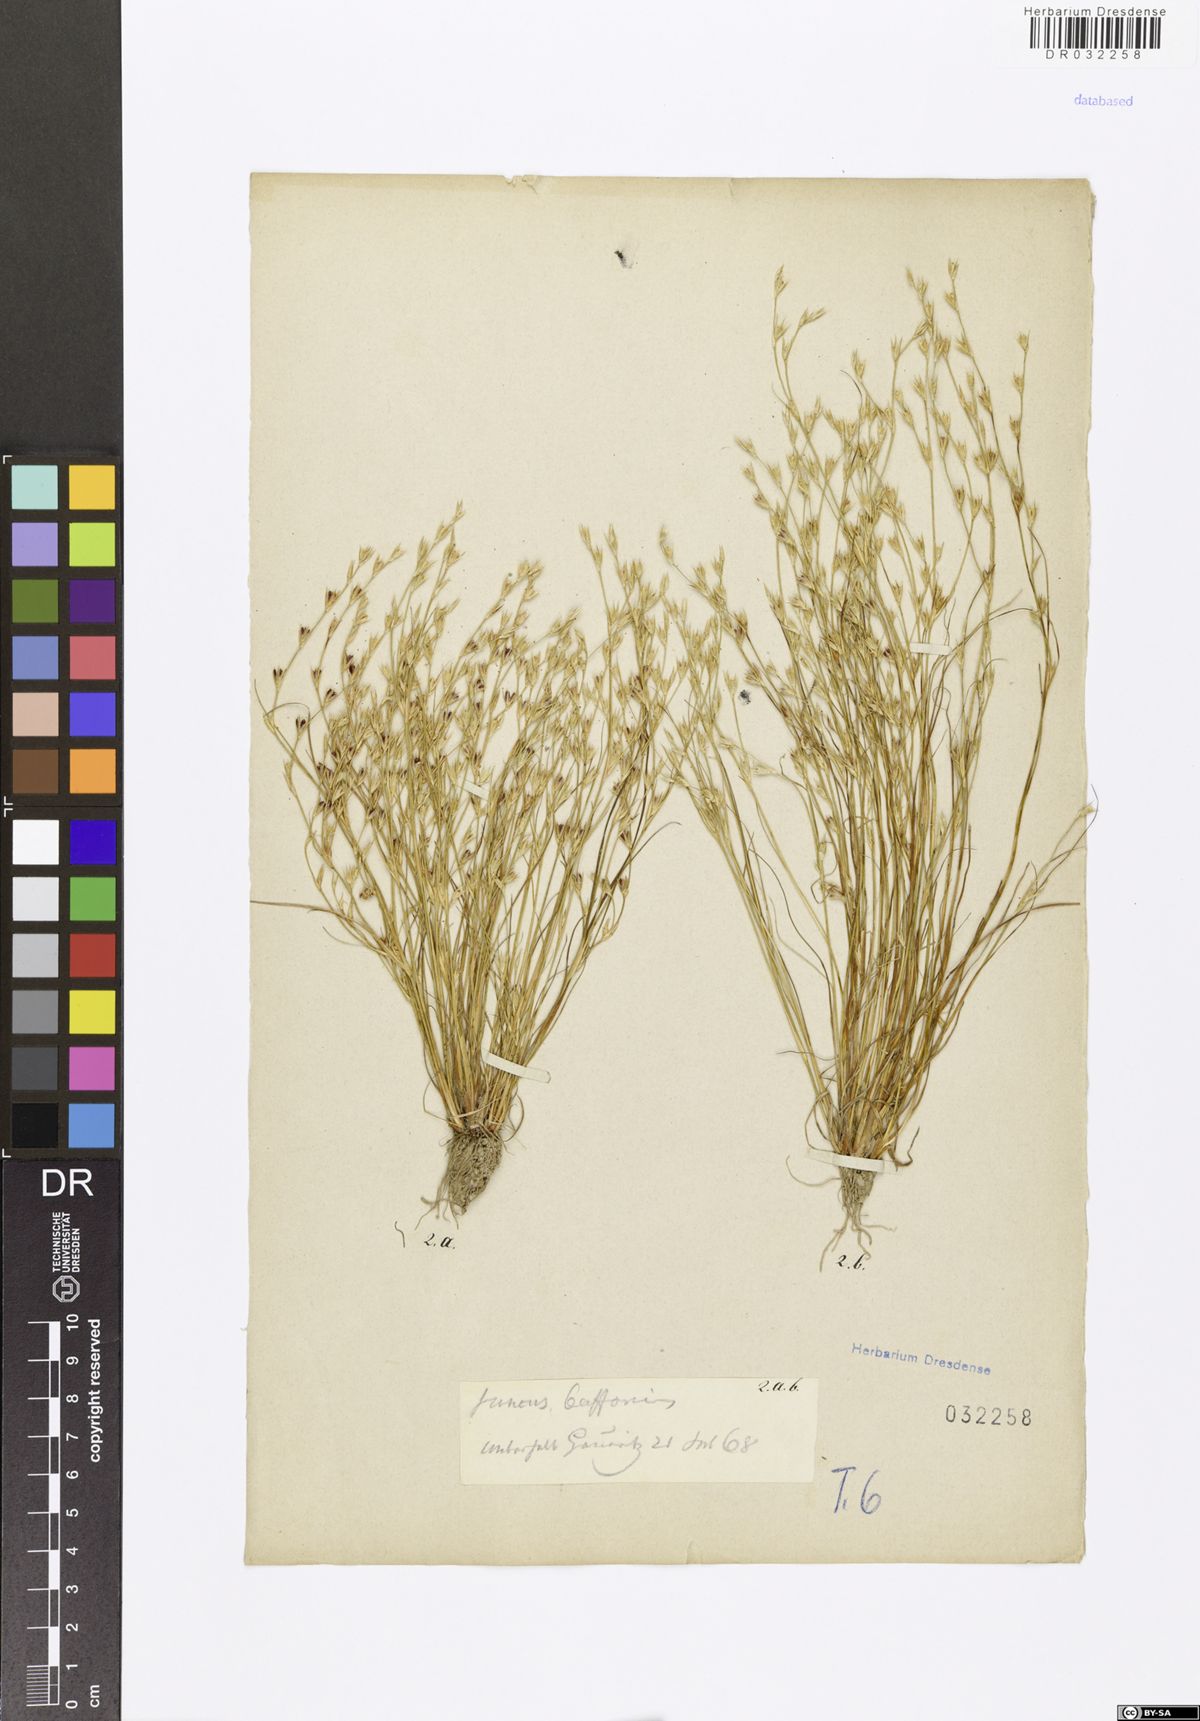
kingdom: Plantae
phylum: Tracheophyta
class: Liliopsida
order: Poales
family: Juncaceae
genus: Juncus
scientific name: Juncus bufonius
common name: Toad rush
